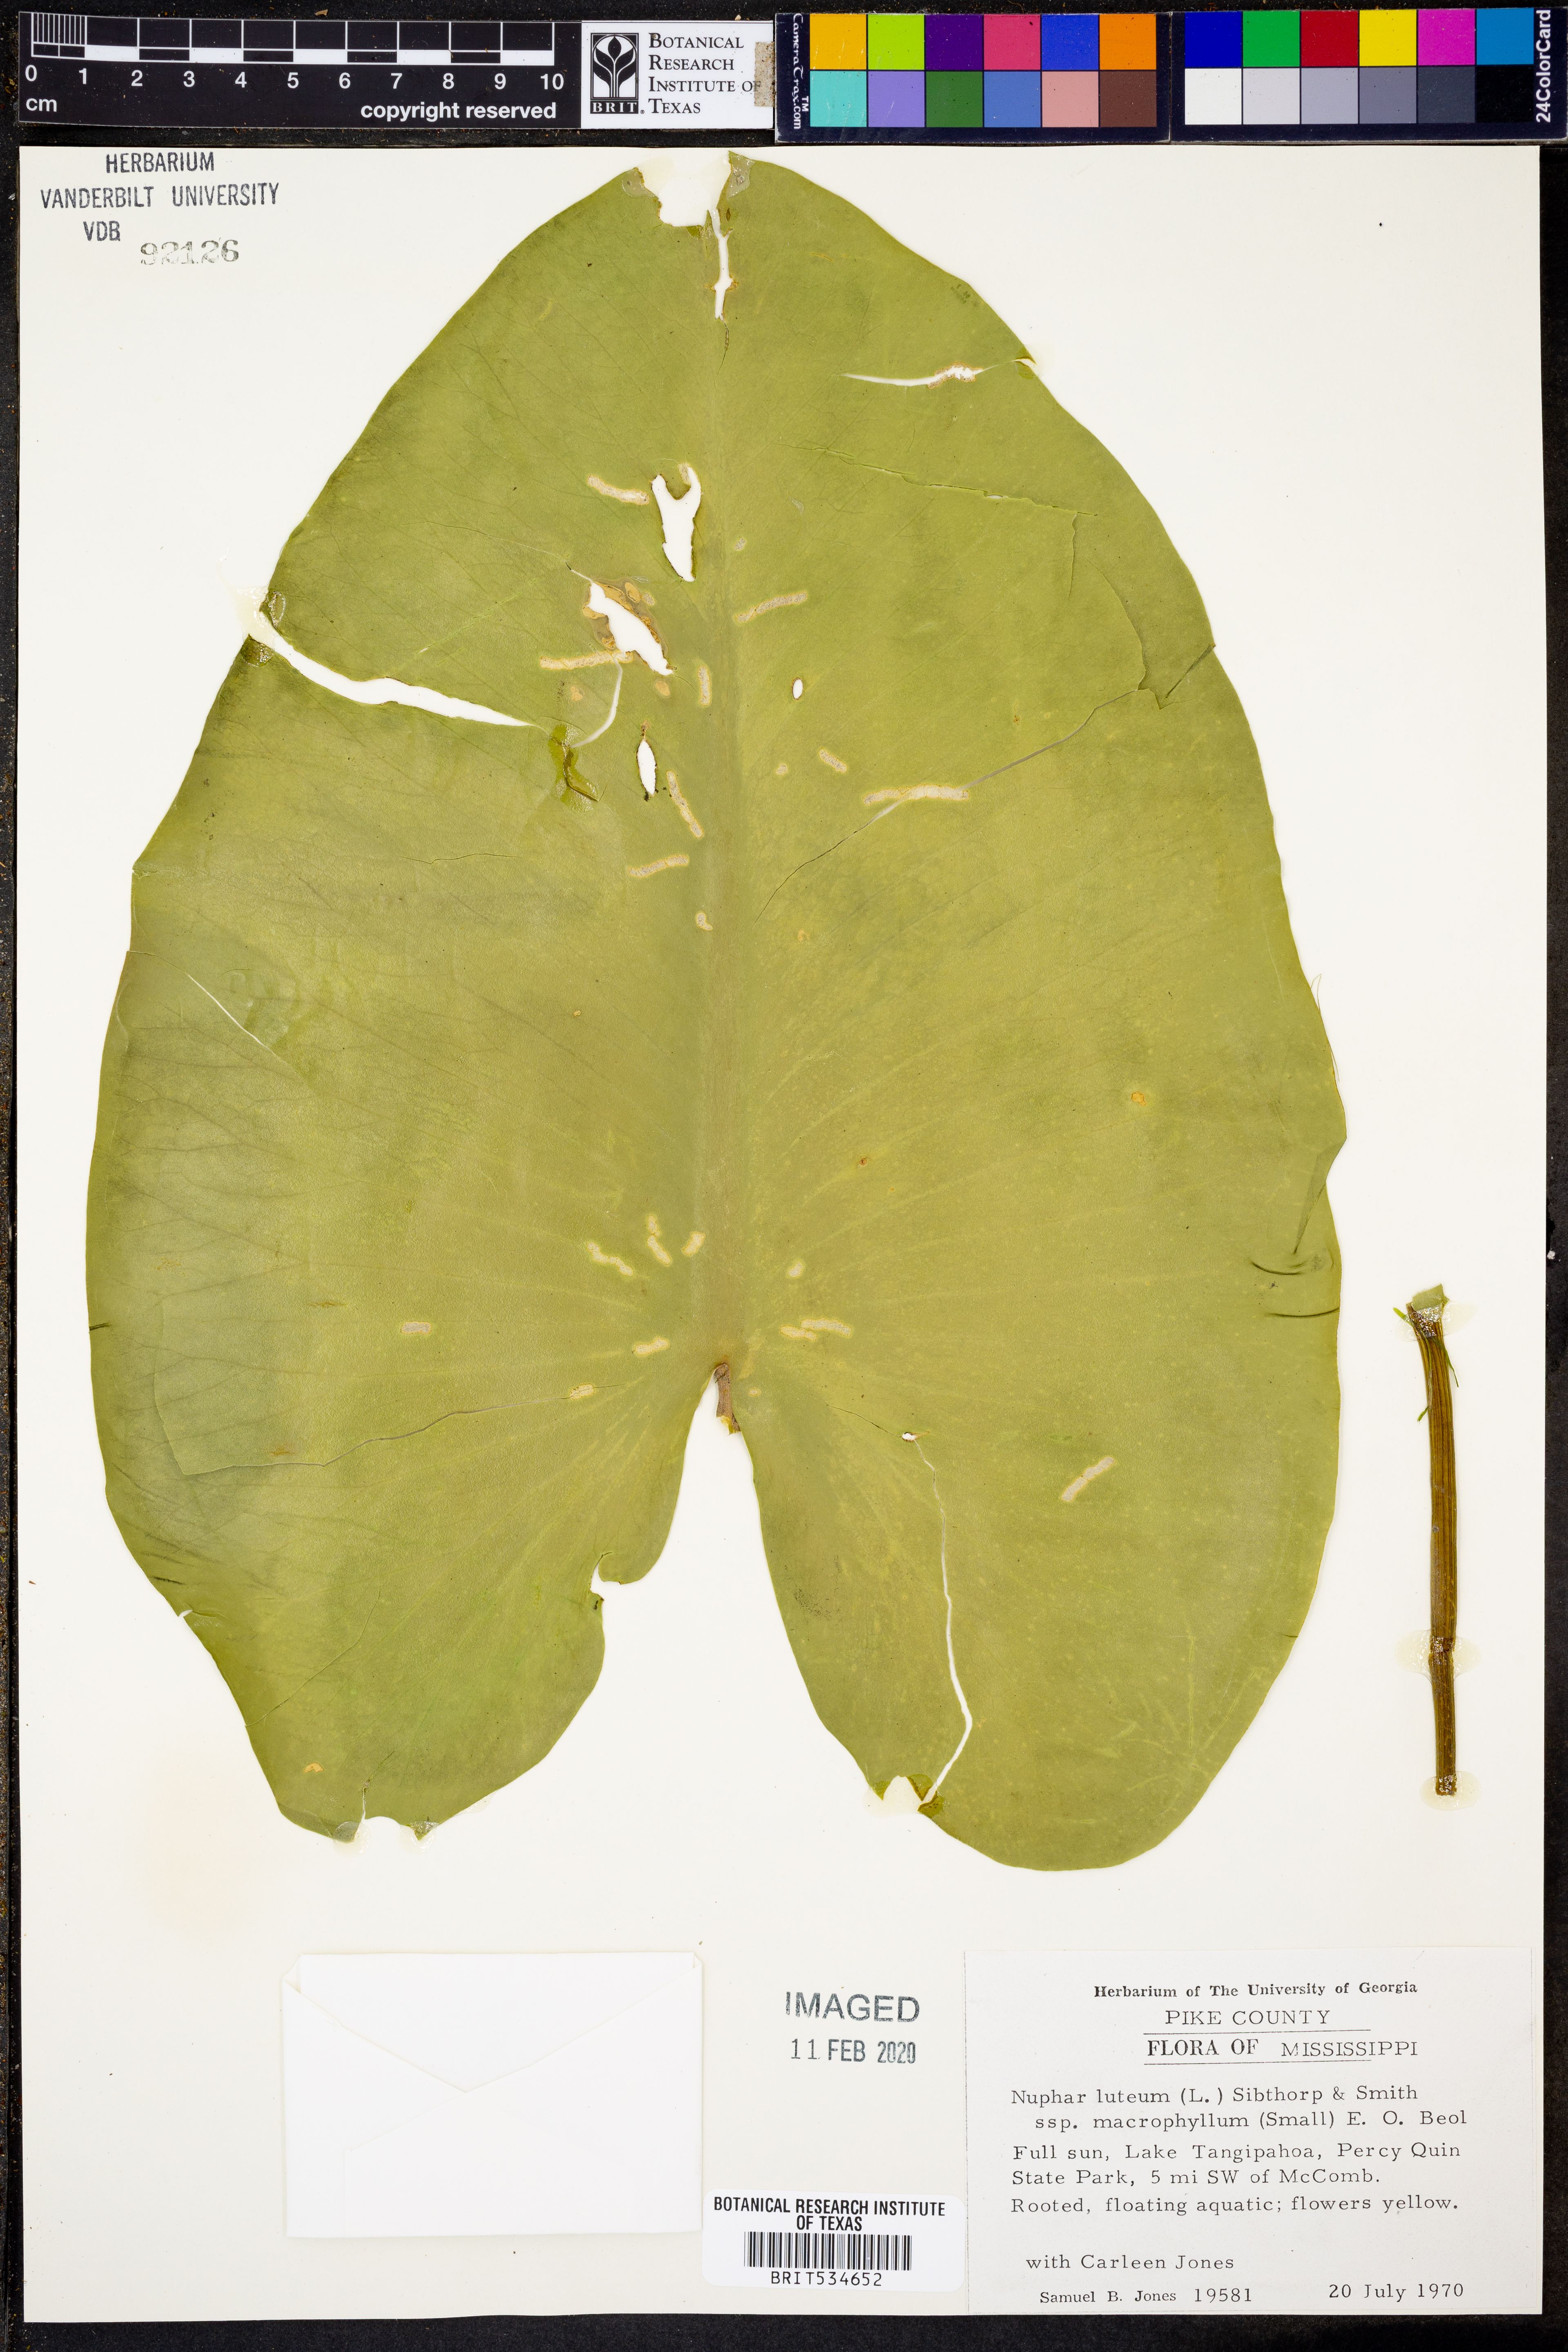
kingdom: Plantae
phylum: Tracheophyta
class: Magnoliopsida
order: Nymphaeales
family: Nymphaeaceae
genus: Nuphar
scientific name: Nuphar advena
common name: Spatter-dock
